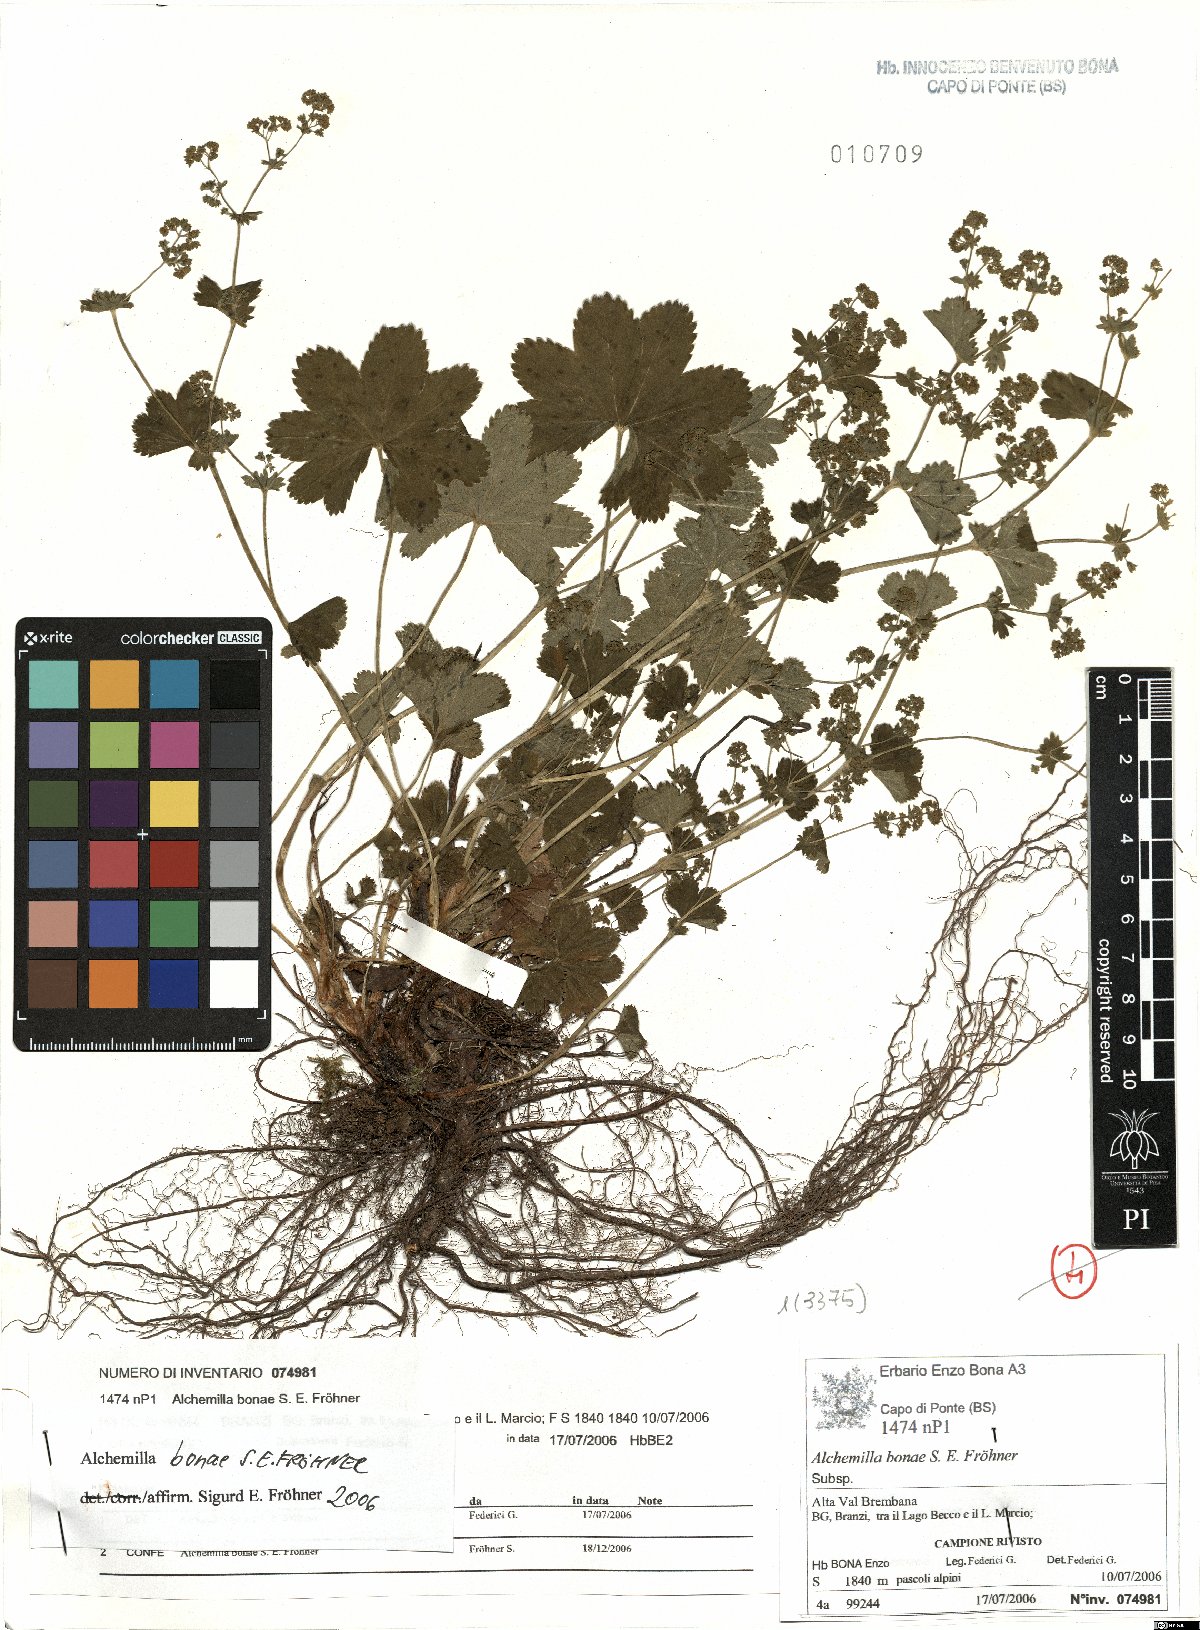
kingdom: Plantae
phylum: Tracheophyta
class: Magnoliopsida
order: Rosales
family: Rosaceae
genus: Alchemilla
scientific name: Alchemilla bonae
